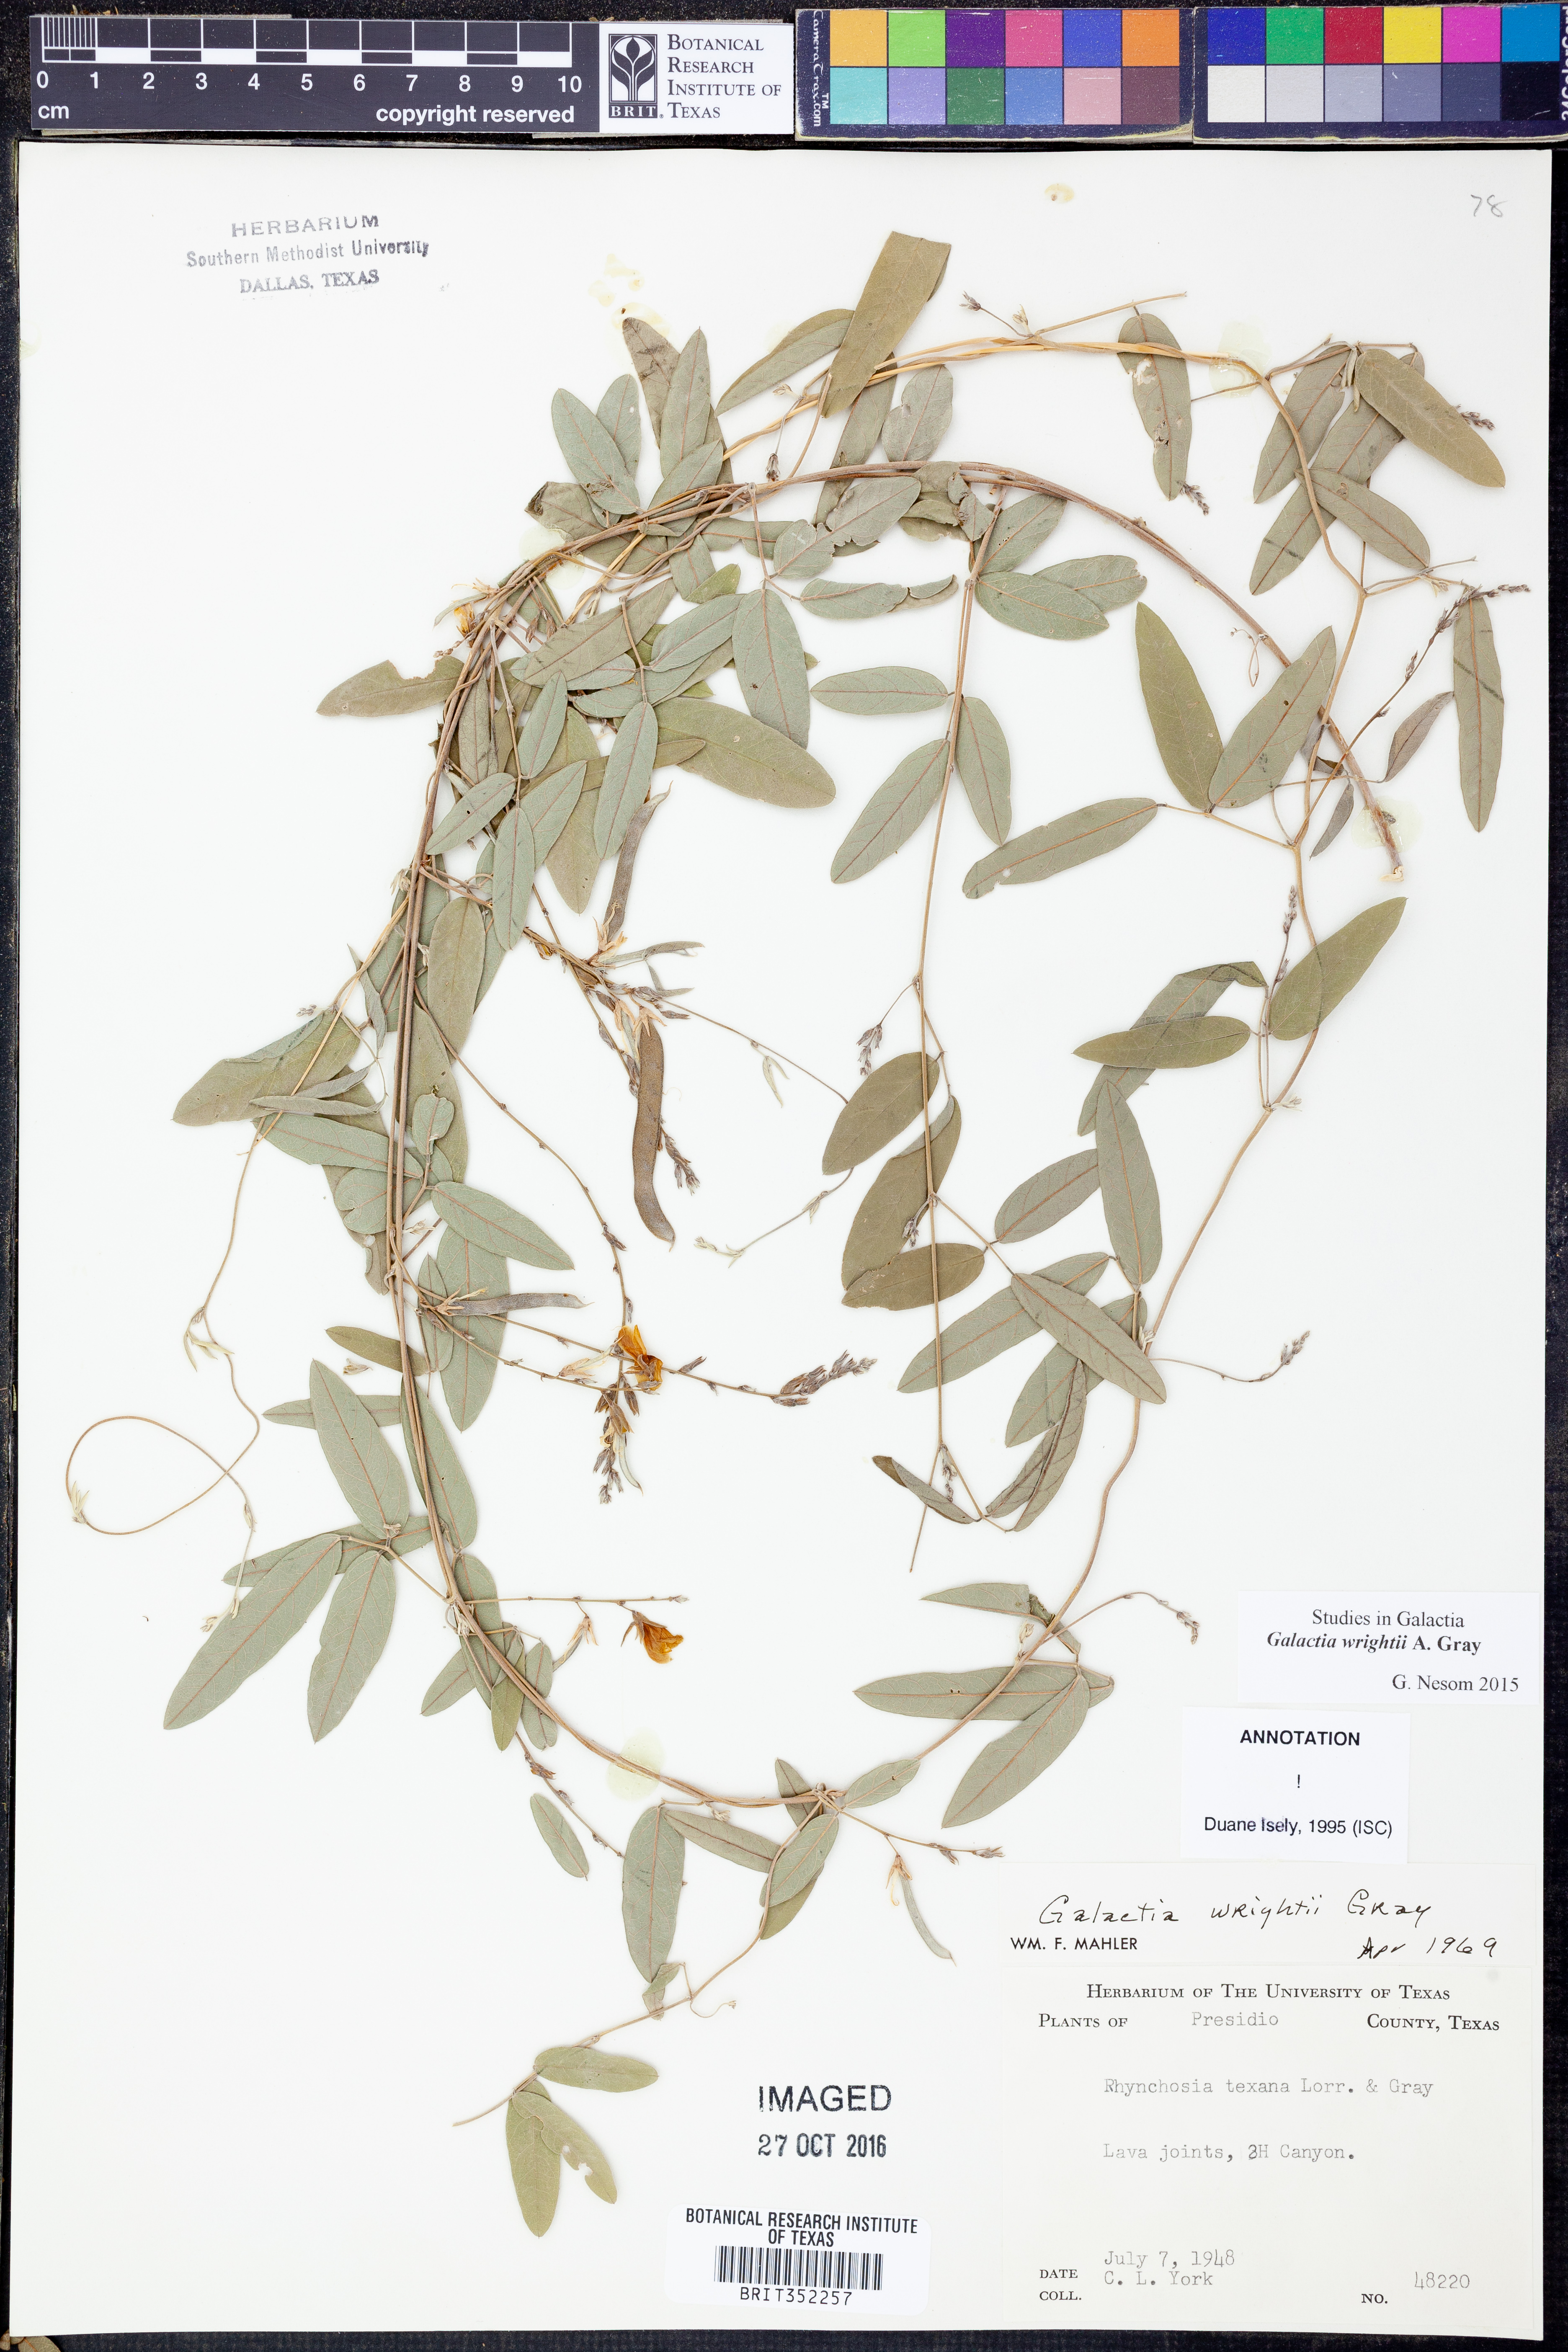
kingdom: Plantae
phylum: Tracheophyta
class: Magnoliopsida
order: Fabales
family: Fabaceae
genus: Galactia
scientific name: Galactia wrightii
